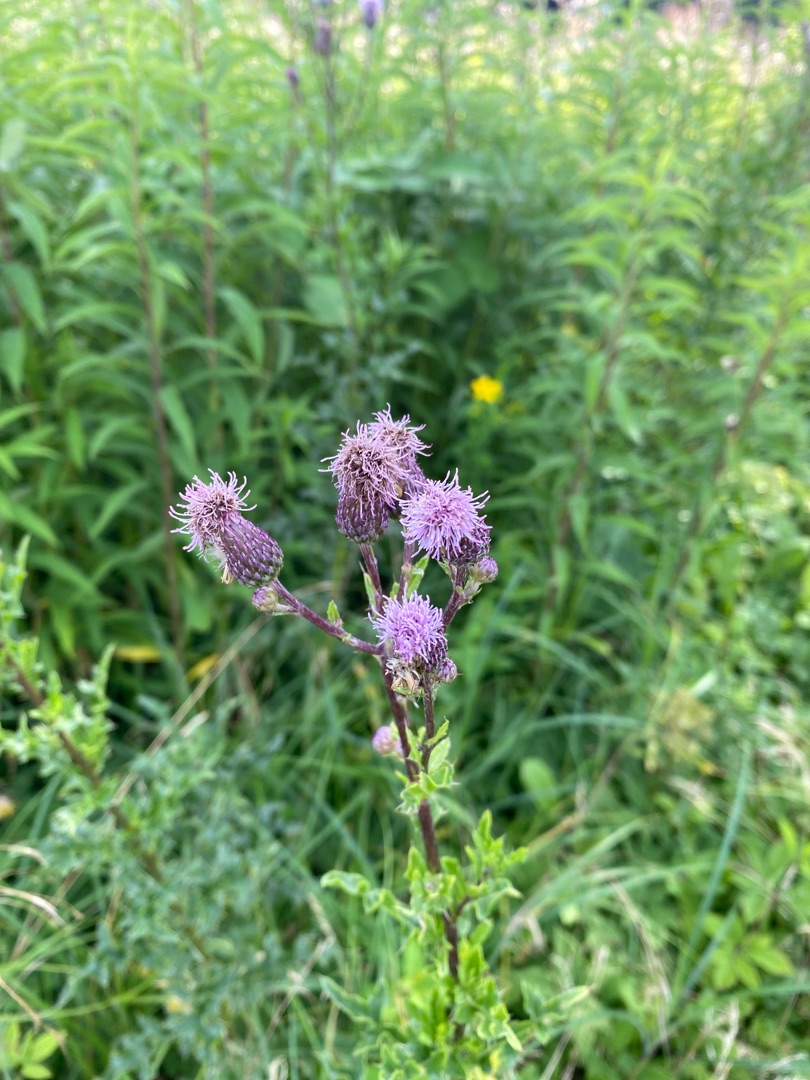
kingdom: Plantae
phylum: Tracheophyta
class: Magnoliopsida
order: Asterales
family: Asteraceae
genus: Cirsium
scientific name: Cirsium arvense
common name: Ager-tidsel
